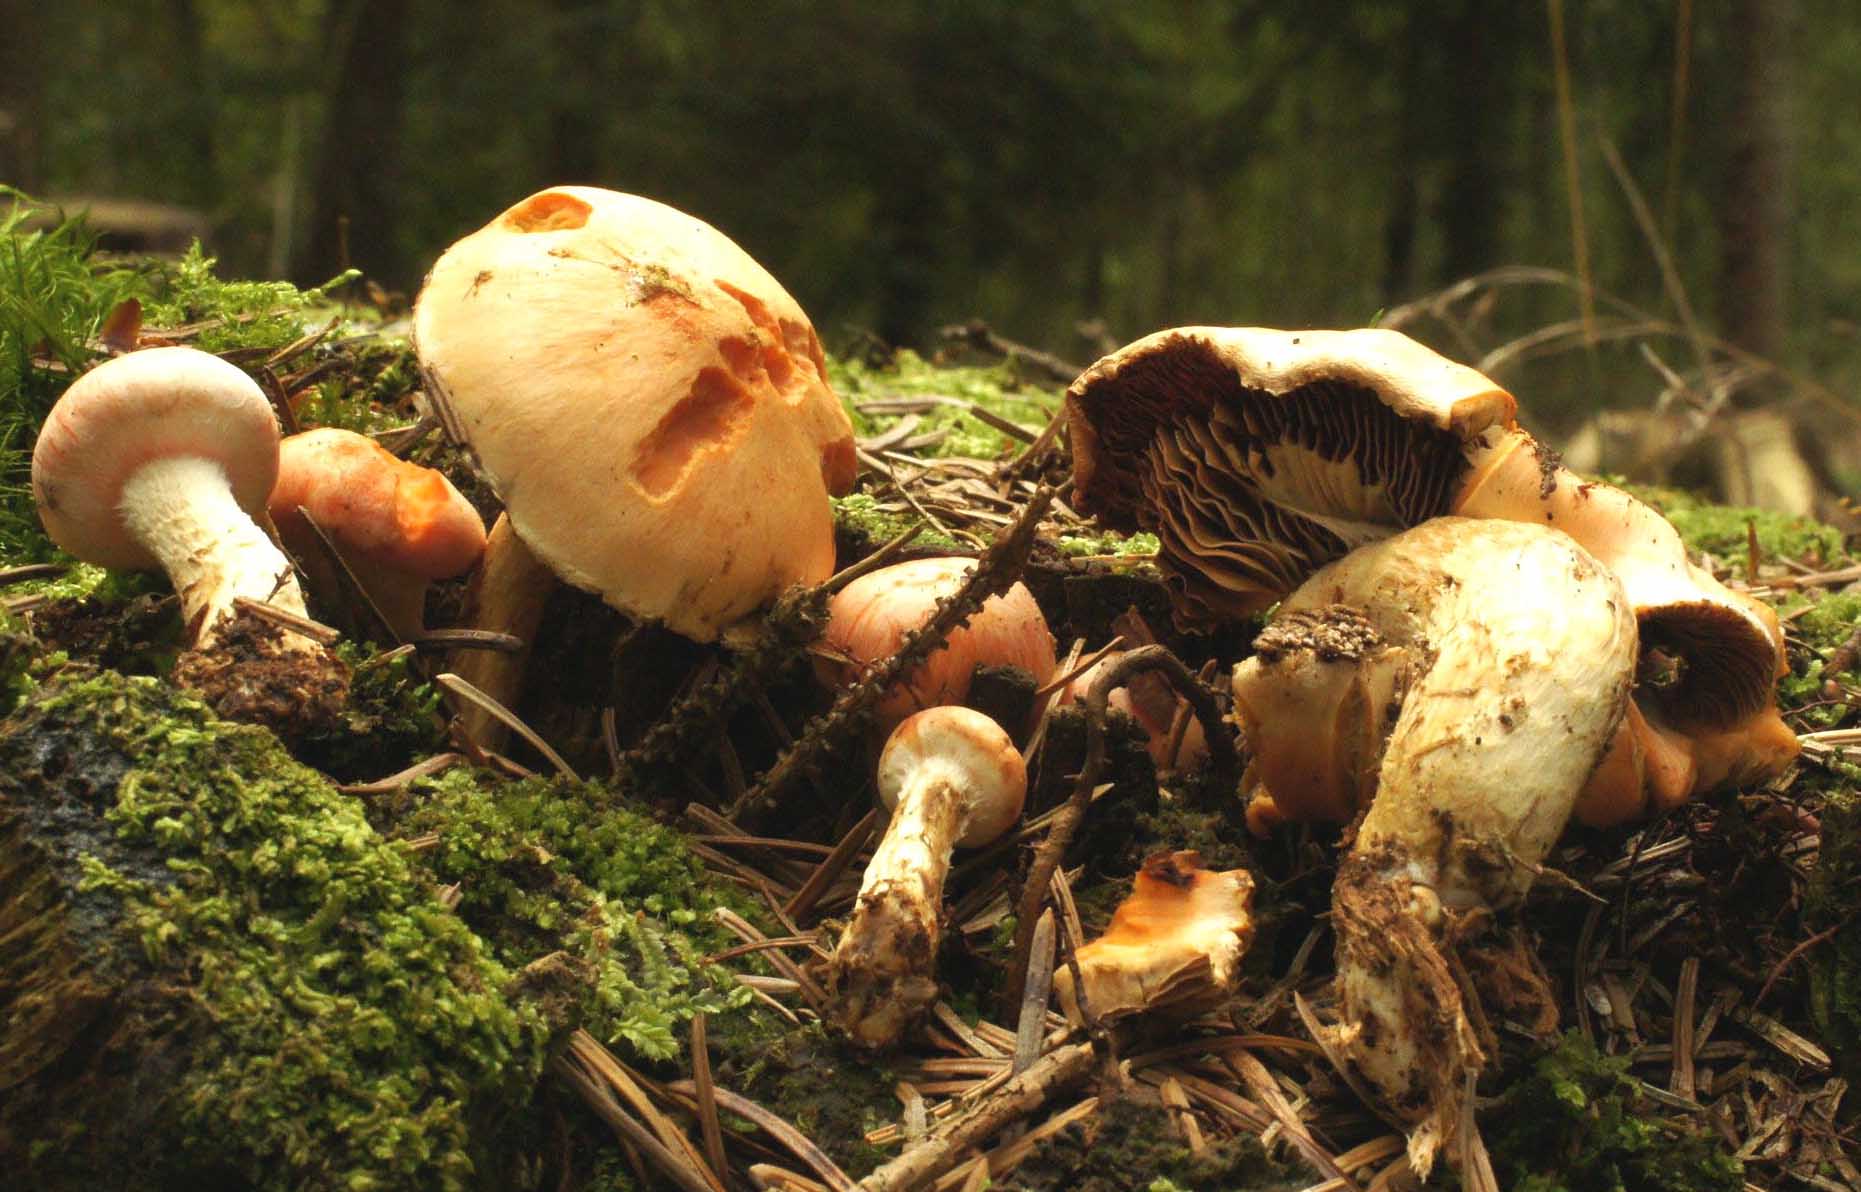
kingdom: Fungi
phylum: Basidiomycota
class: Agaricomycetes
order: Agaricales
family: Strophariaceae
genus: Pyrrhulomyces
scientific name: Pyrrhulomyces astragalinus
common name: safran-skælhat
